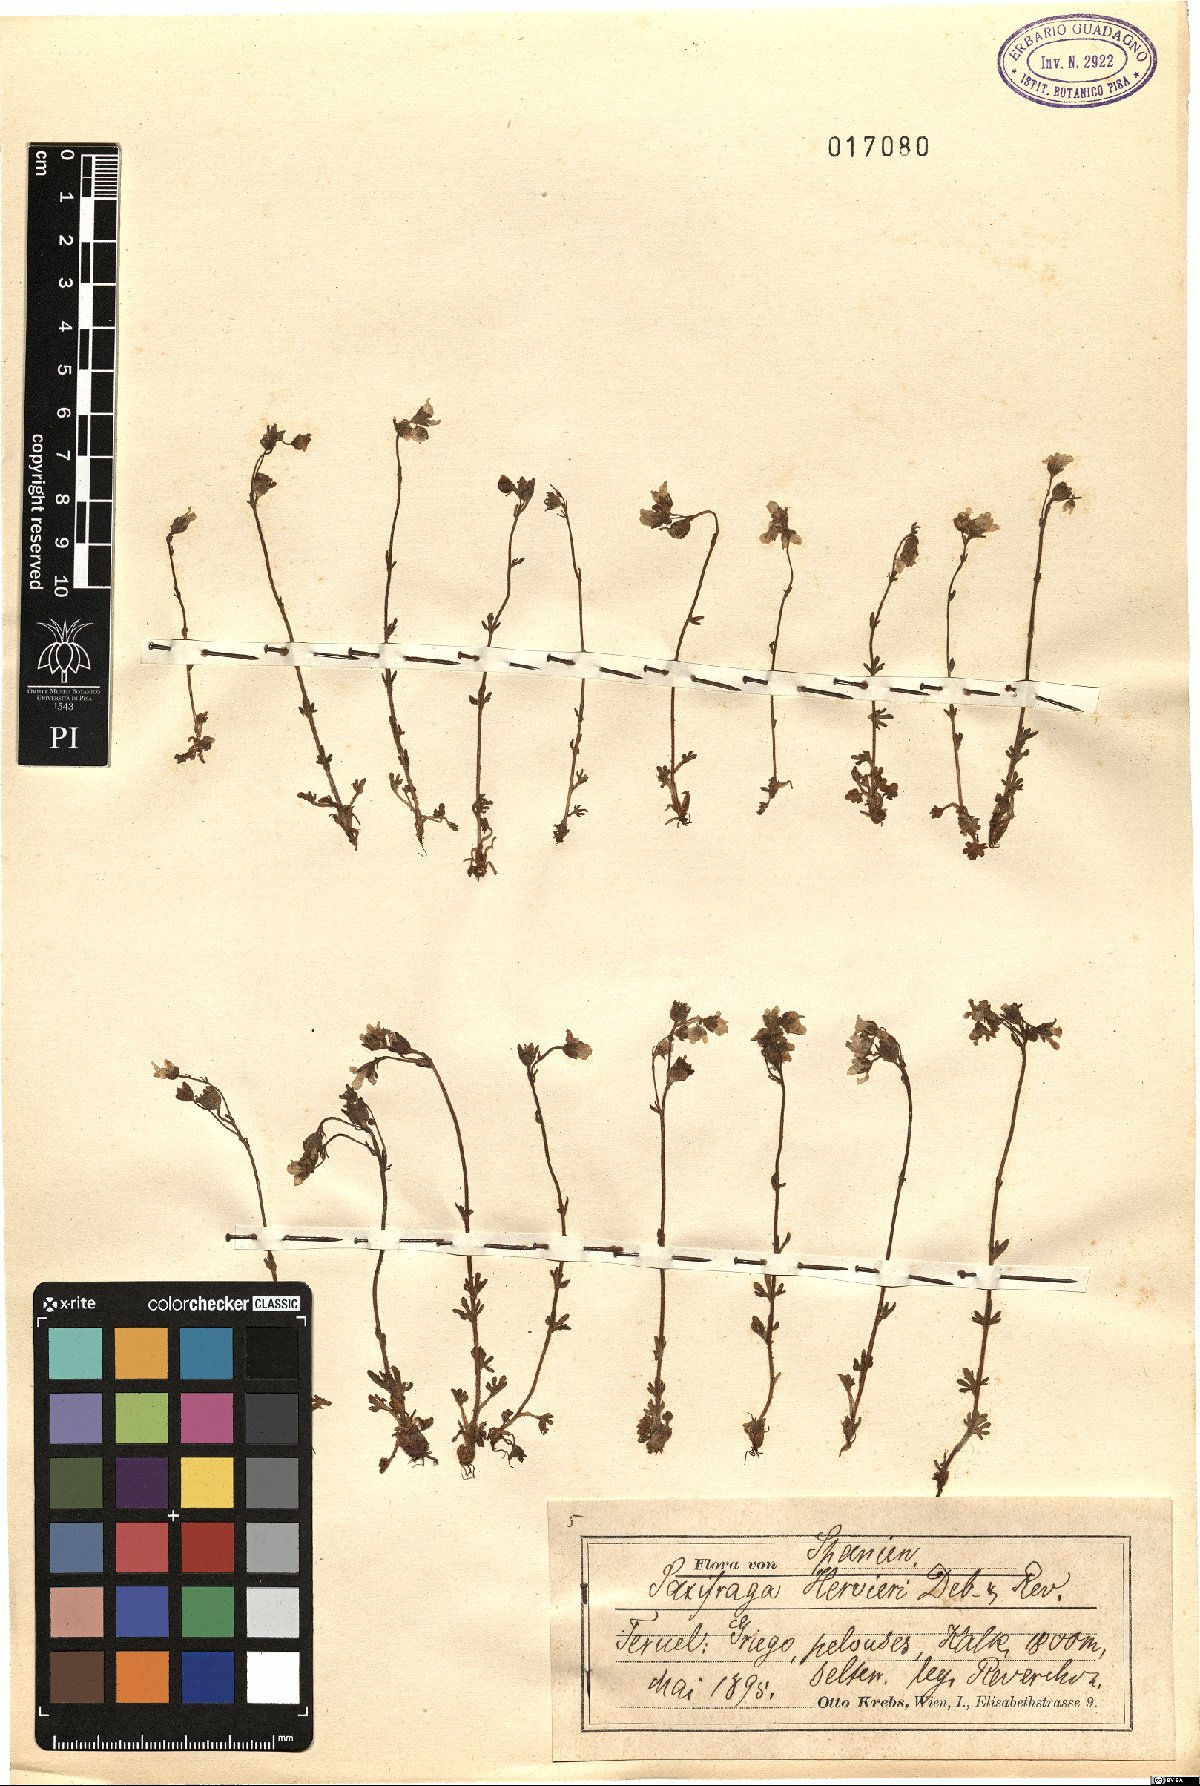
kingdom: Plantae
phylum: Tracheophyta
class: Magnoliopsida
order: Saxifragales
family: Saxifragaceae
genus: Saxifraga
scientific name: Saxifraga dichotoma
